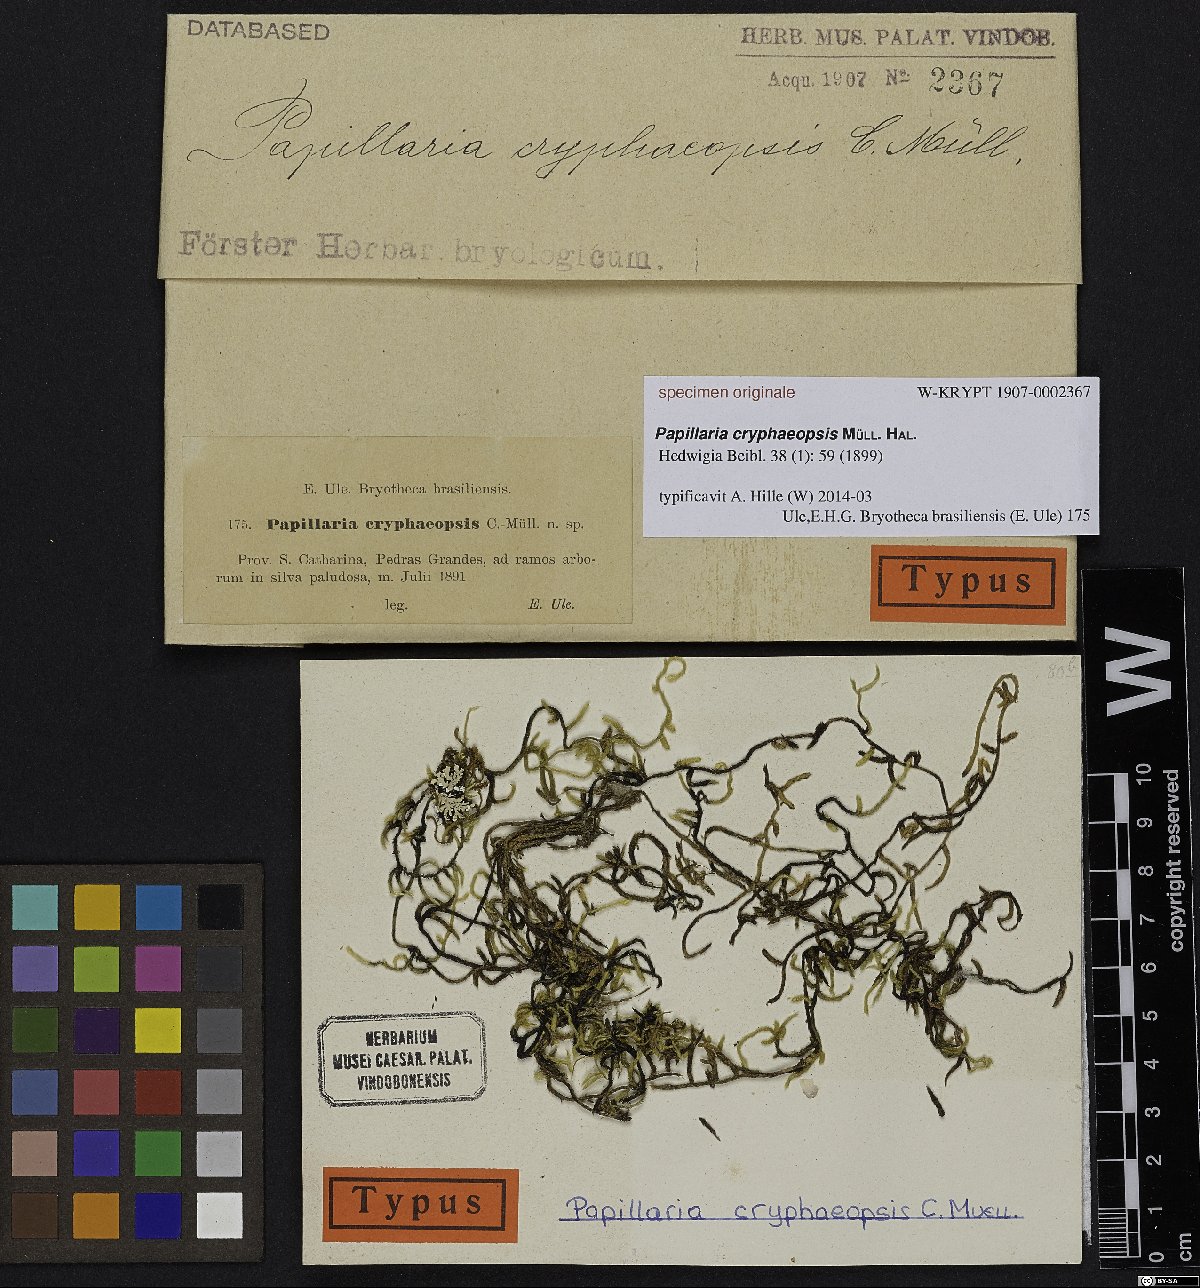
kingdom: Plantae
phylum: Bryophyta
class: Bryopsida
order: Hypnales
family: Meteoriaceae
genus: Papillaria
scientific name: Papillaria
